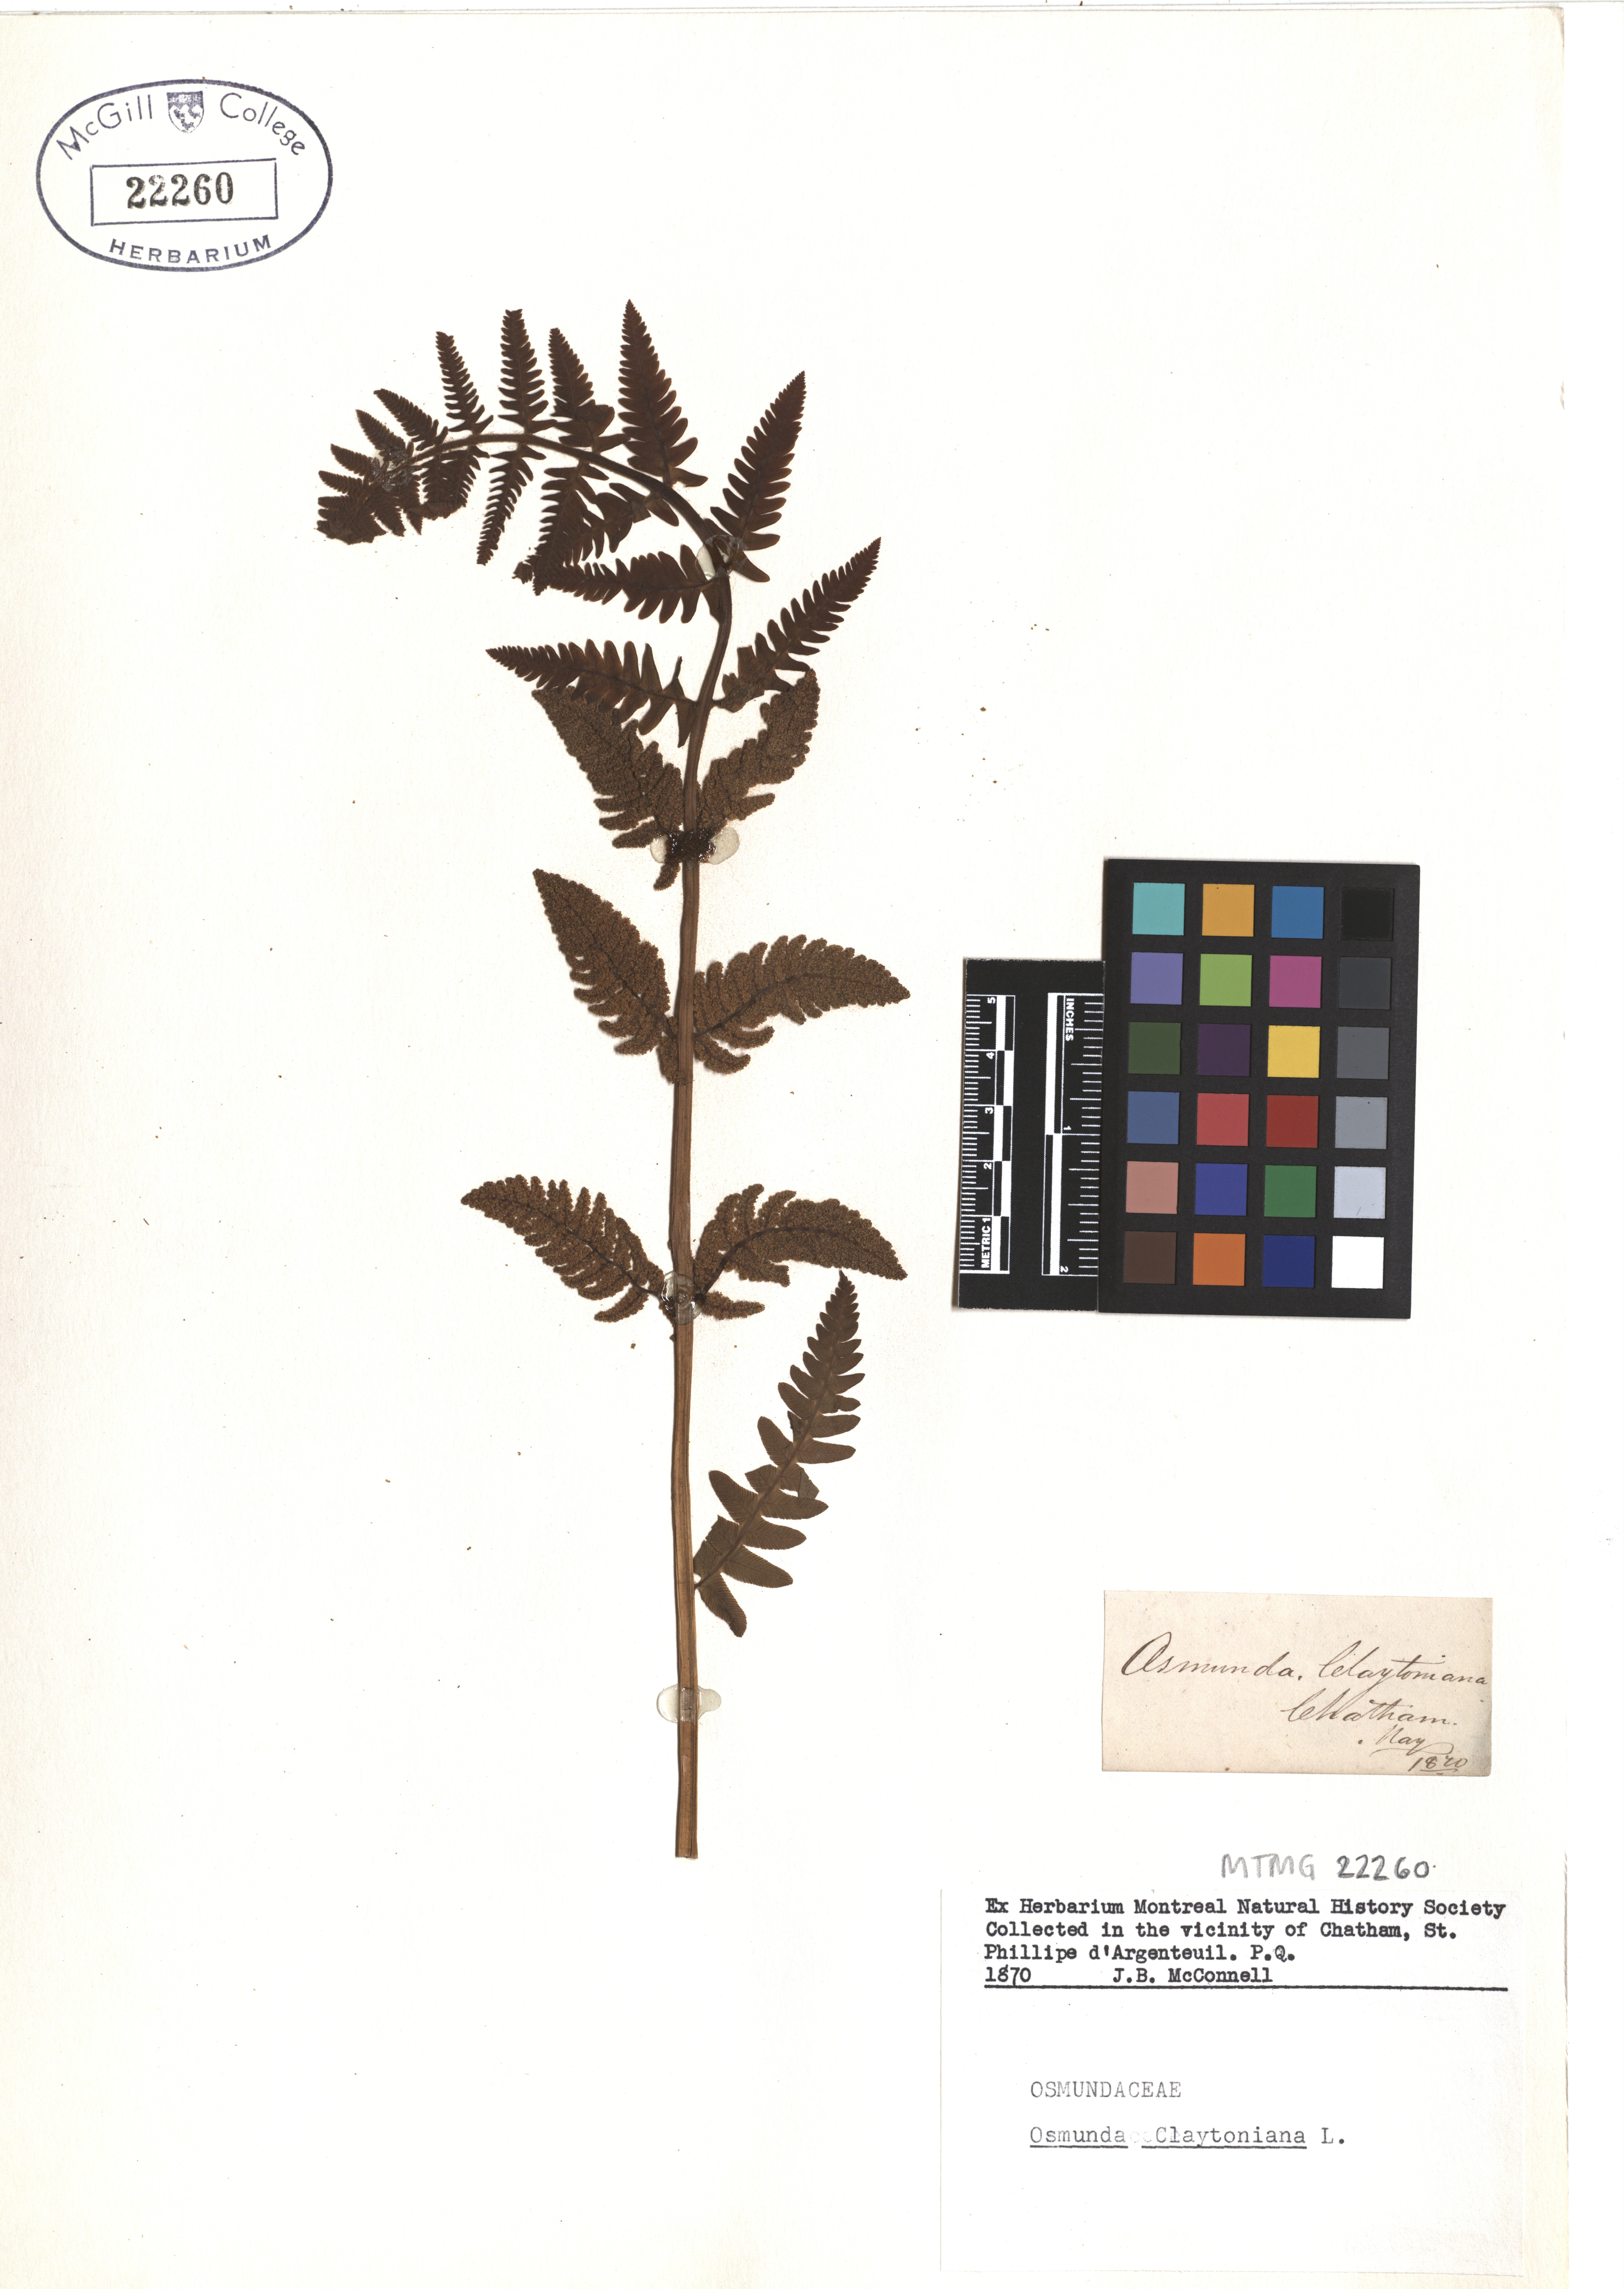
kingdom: Plantae
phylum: Tracheophyta
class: Polypodiopsida
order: Osmundales
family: Osmundaceae
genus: Claytosmunda
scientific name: Claytosmunda claytoniana
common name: Clayton's fern
